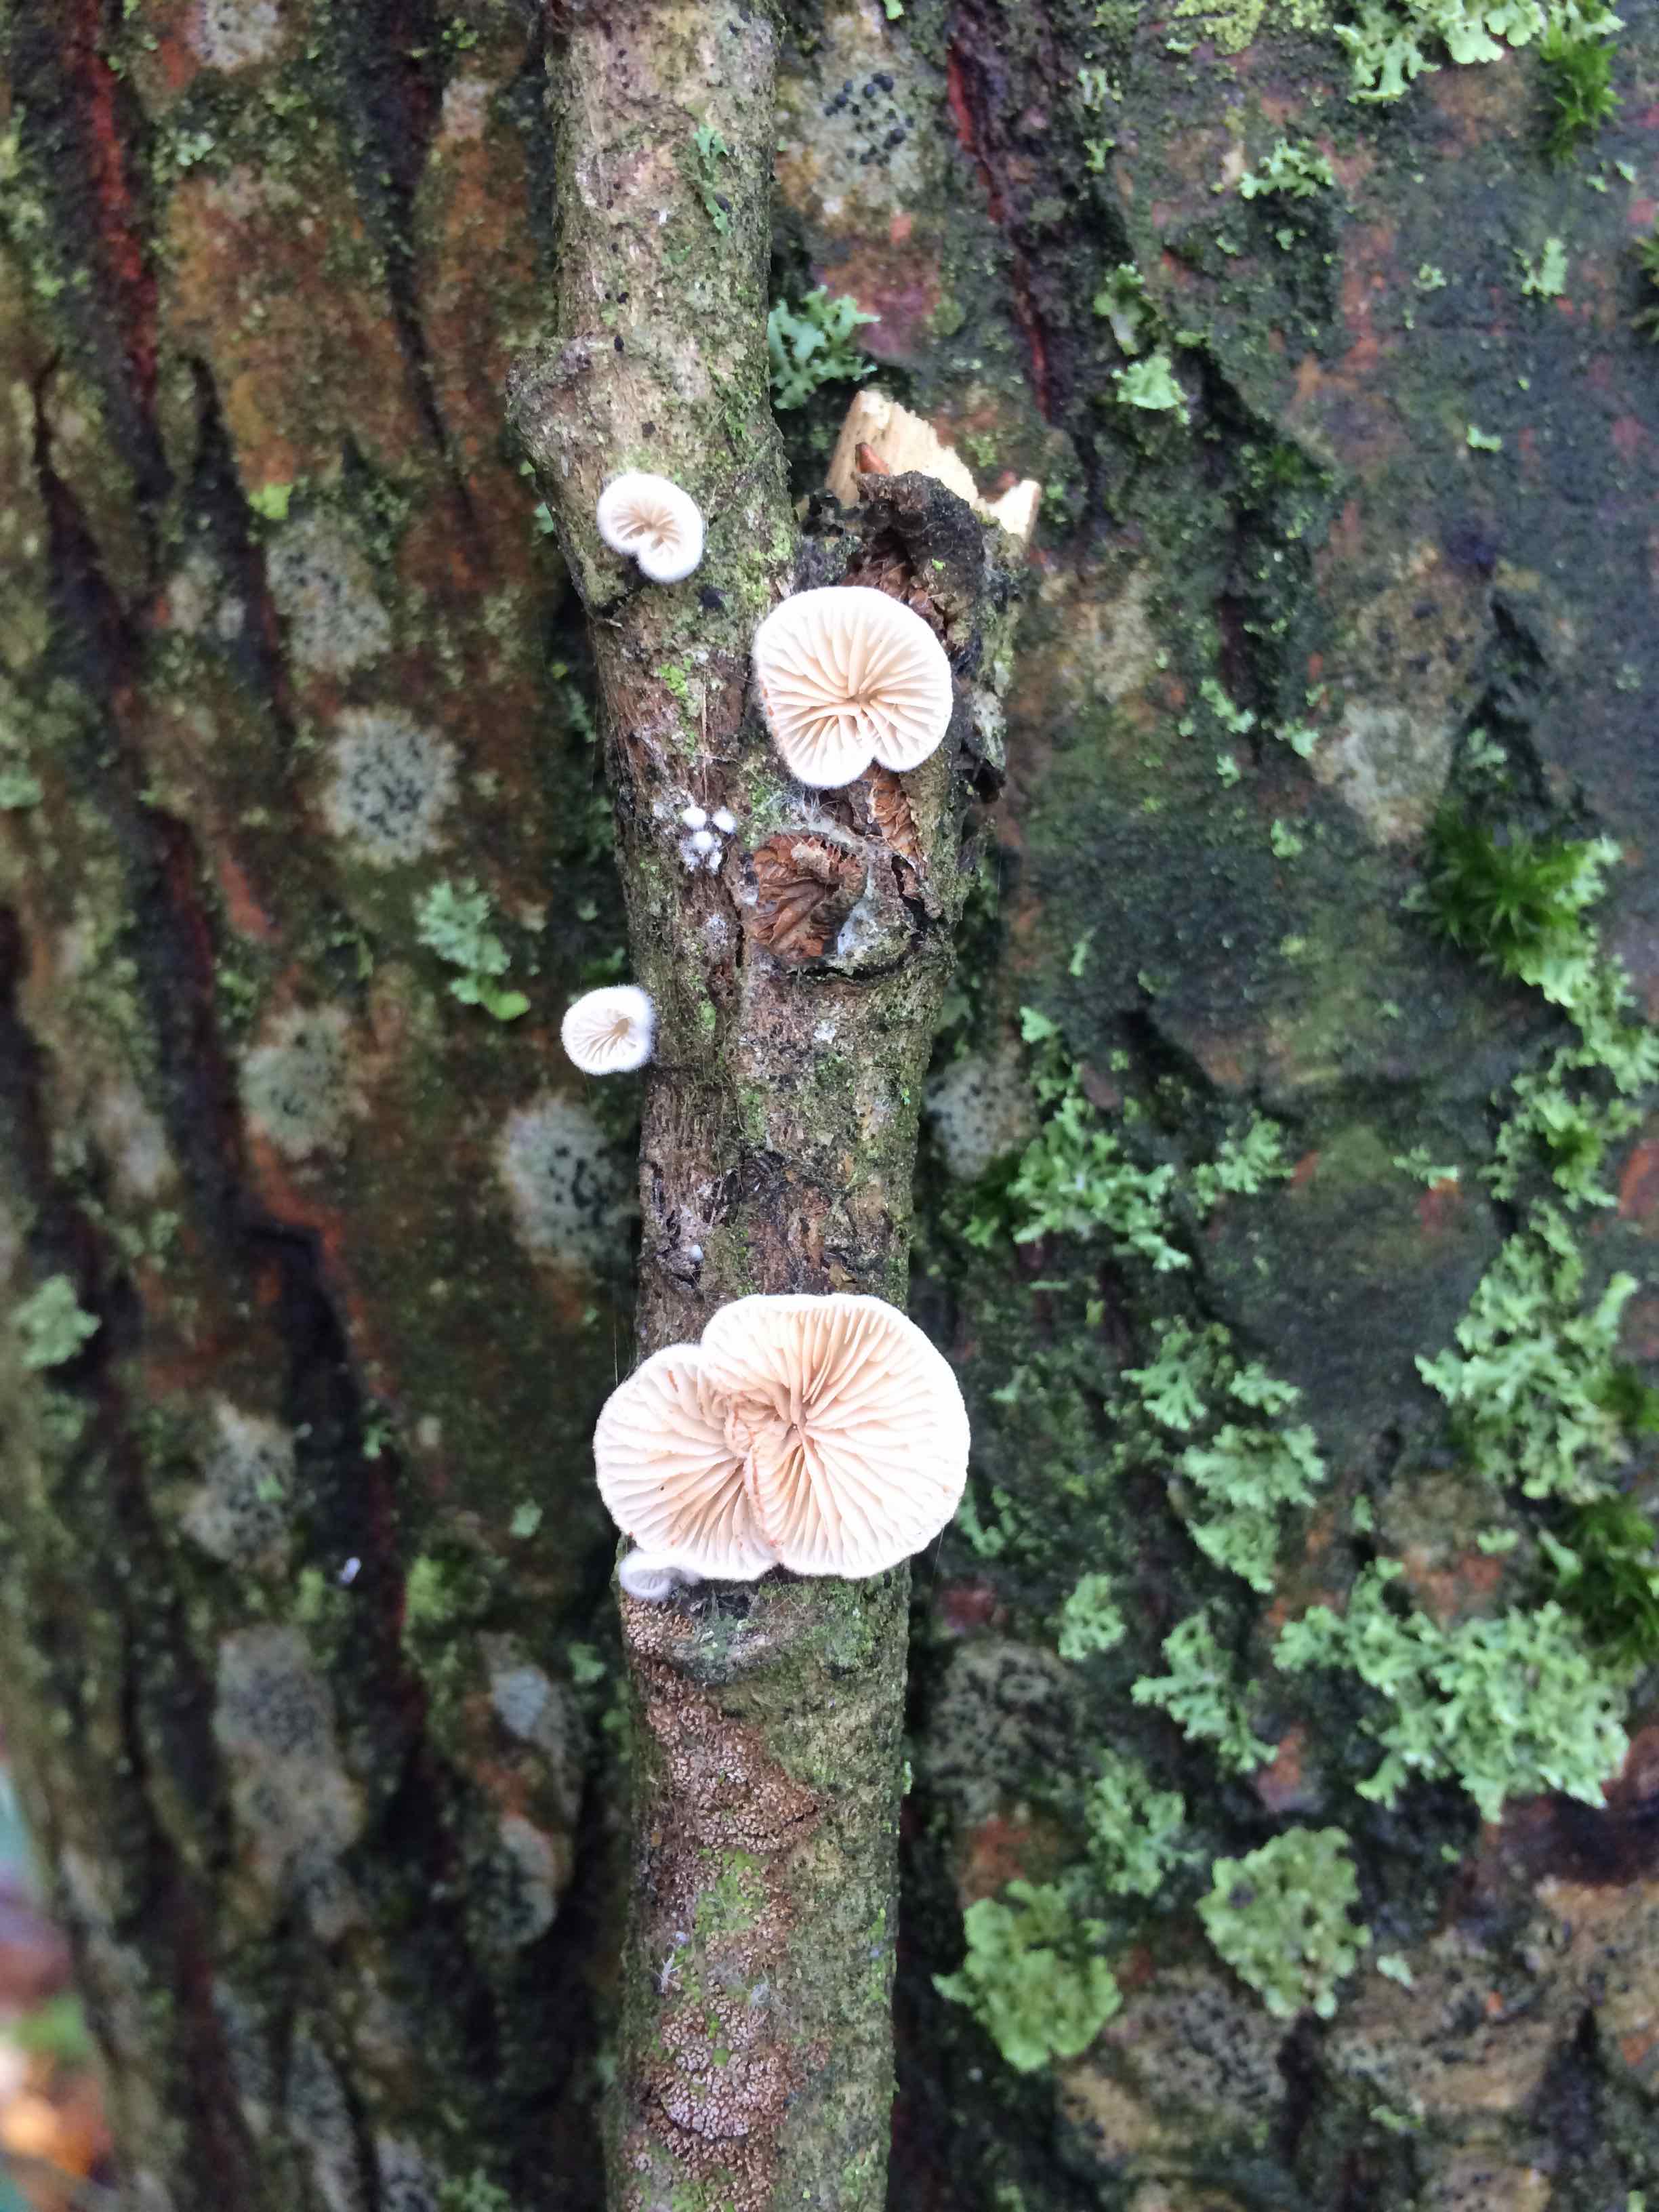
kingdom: Fungi
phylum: Basidiomycota
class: Agaricomycetes
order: Agaricales
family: Crepidotaceae
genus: Crepidotus
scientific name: Crepidotus
